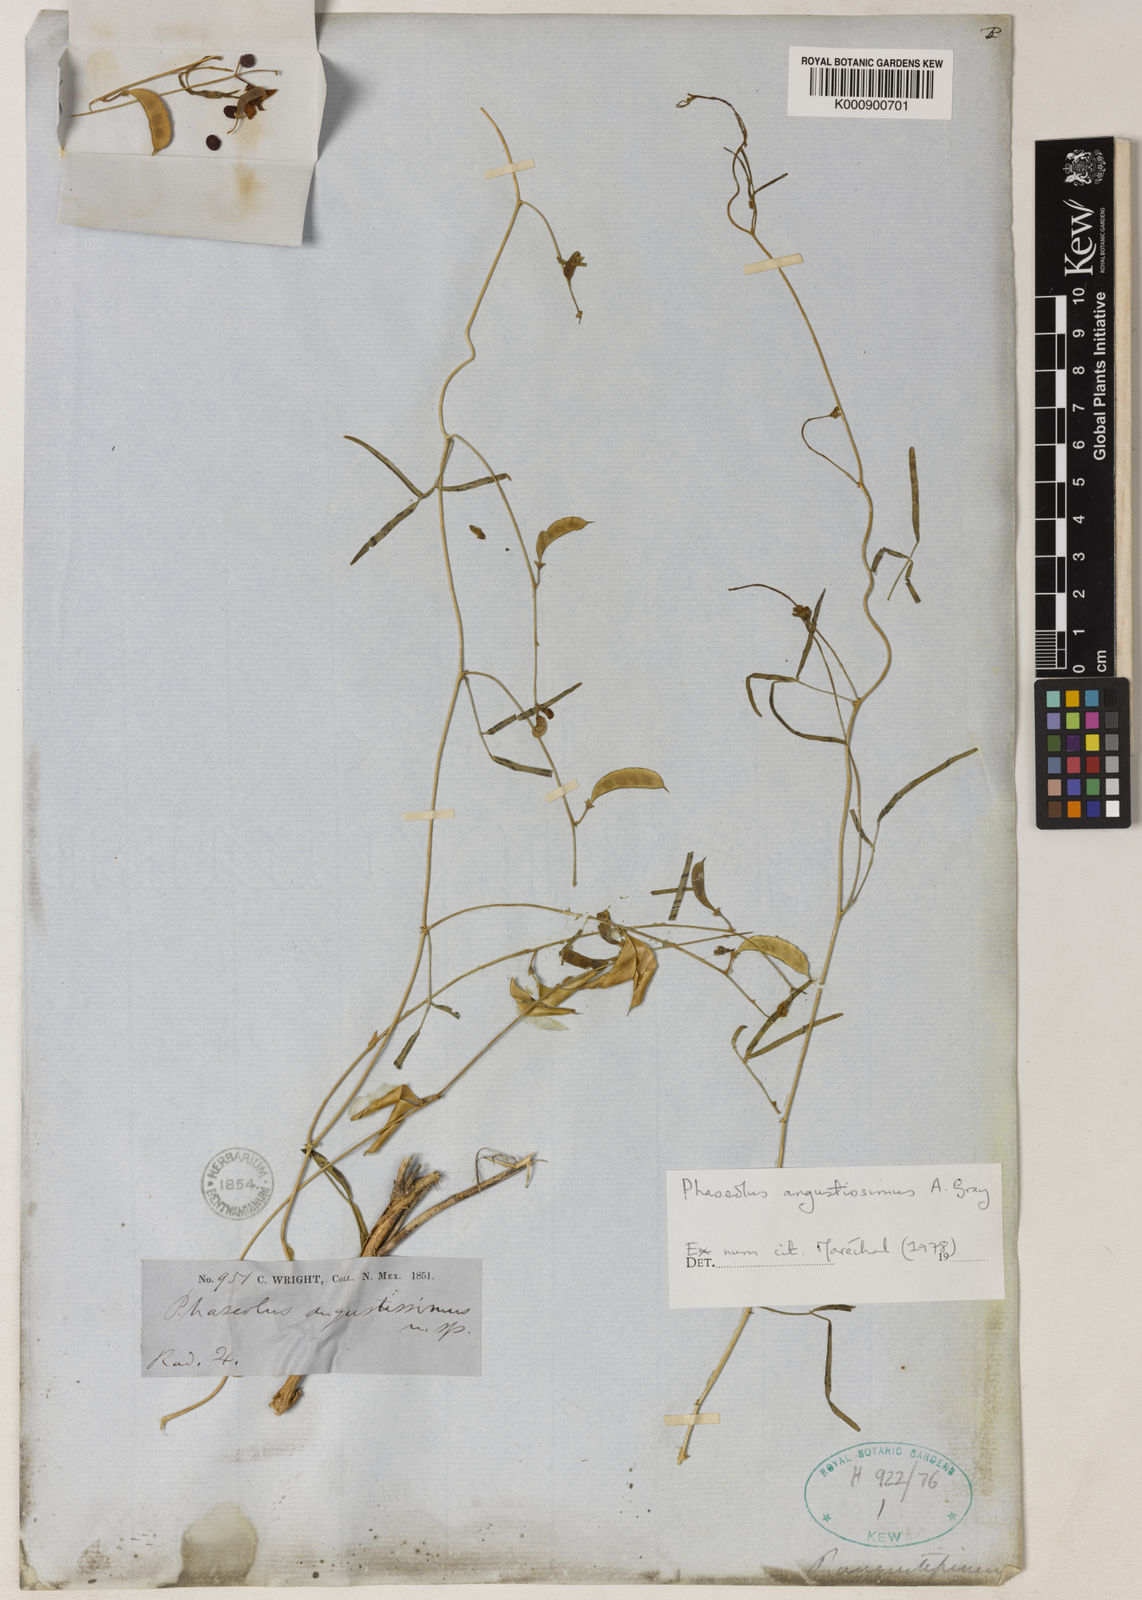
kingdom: Plantae
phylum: Tracheophyta
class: Magnoliopsida
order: Fabales
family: Fabaceae
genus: Phaseolus
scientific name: Phaseolus angustissimus
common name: Slimleaf bean
